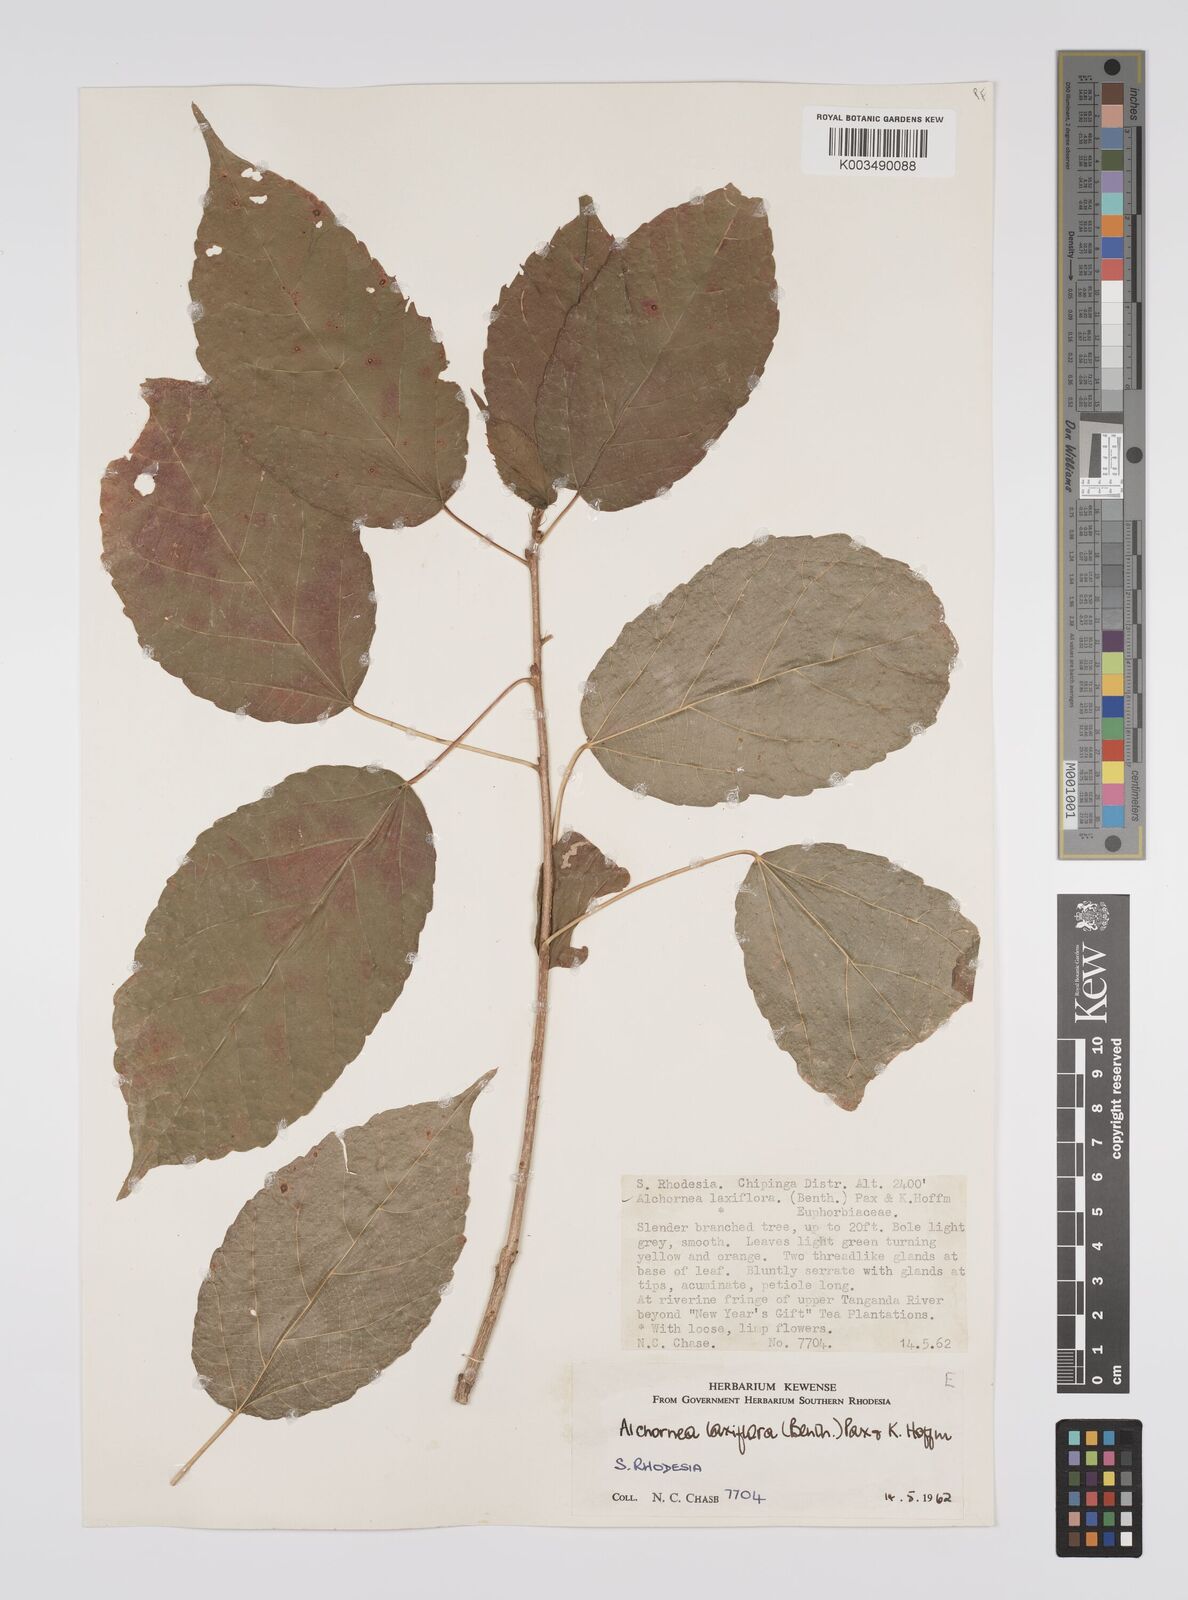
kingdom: Plantae
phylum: Tracheophyta
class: Magnoliopsida
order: Malpighiales
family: Euphorbiaceae
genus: Alchornea
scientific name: Alchornea laxiflora
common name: Lowveld bead-string
